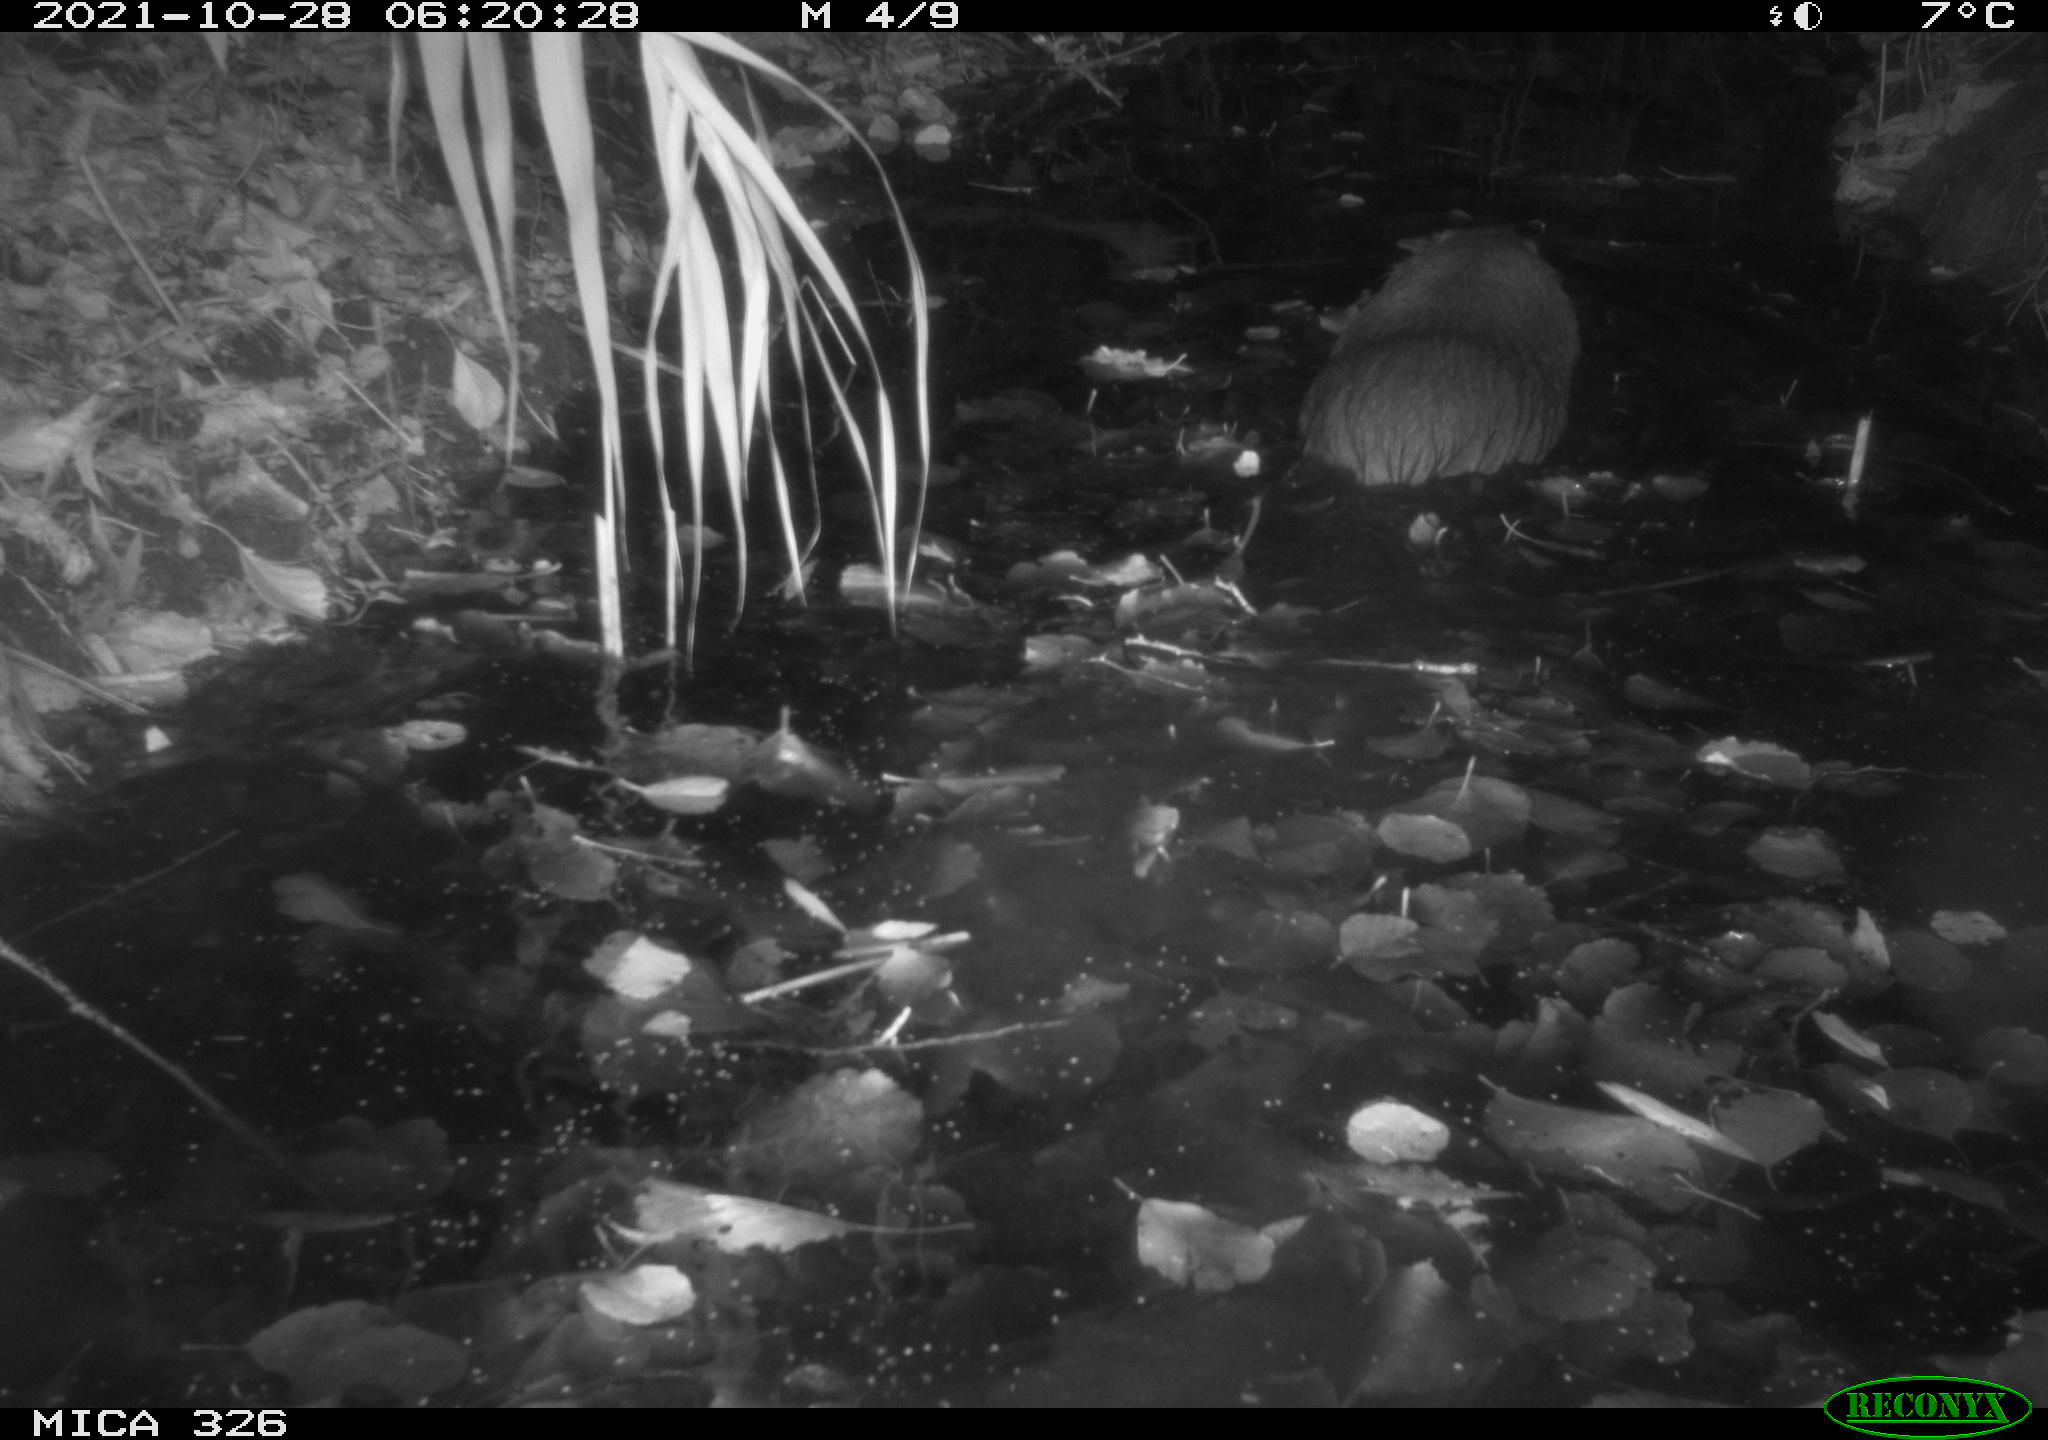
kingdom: Animalia
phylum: Chordata
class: Mammalia
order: Rodentia
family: Myocastoridae
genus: Myocastor
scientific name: Myocastor coypus
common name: Coypu
